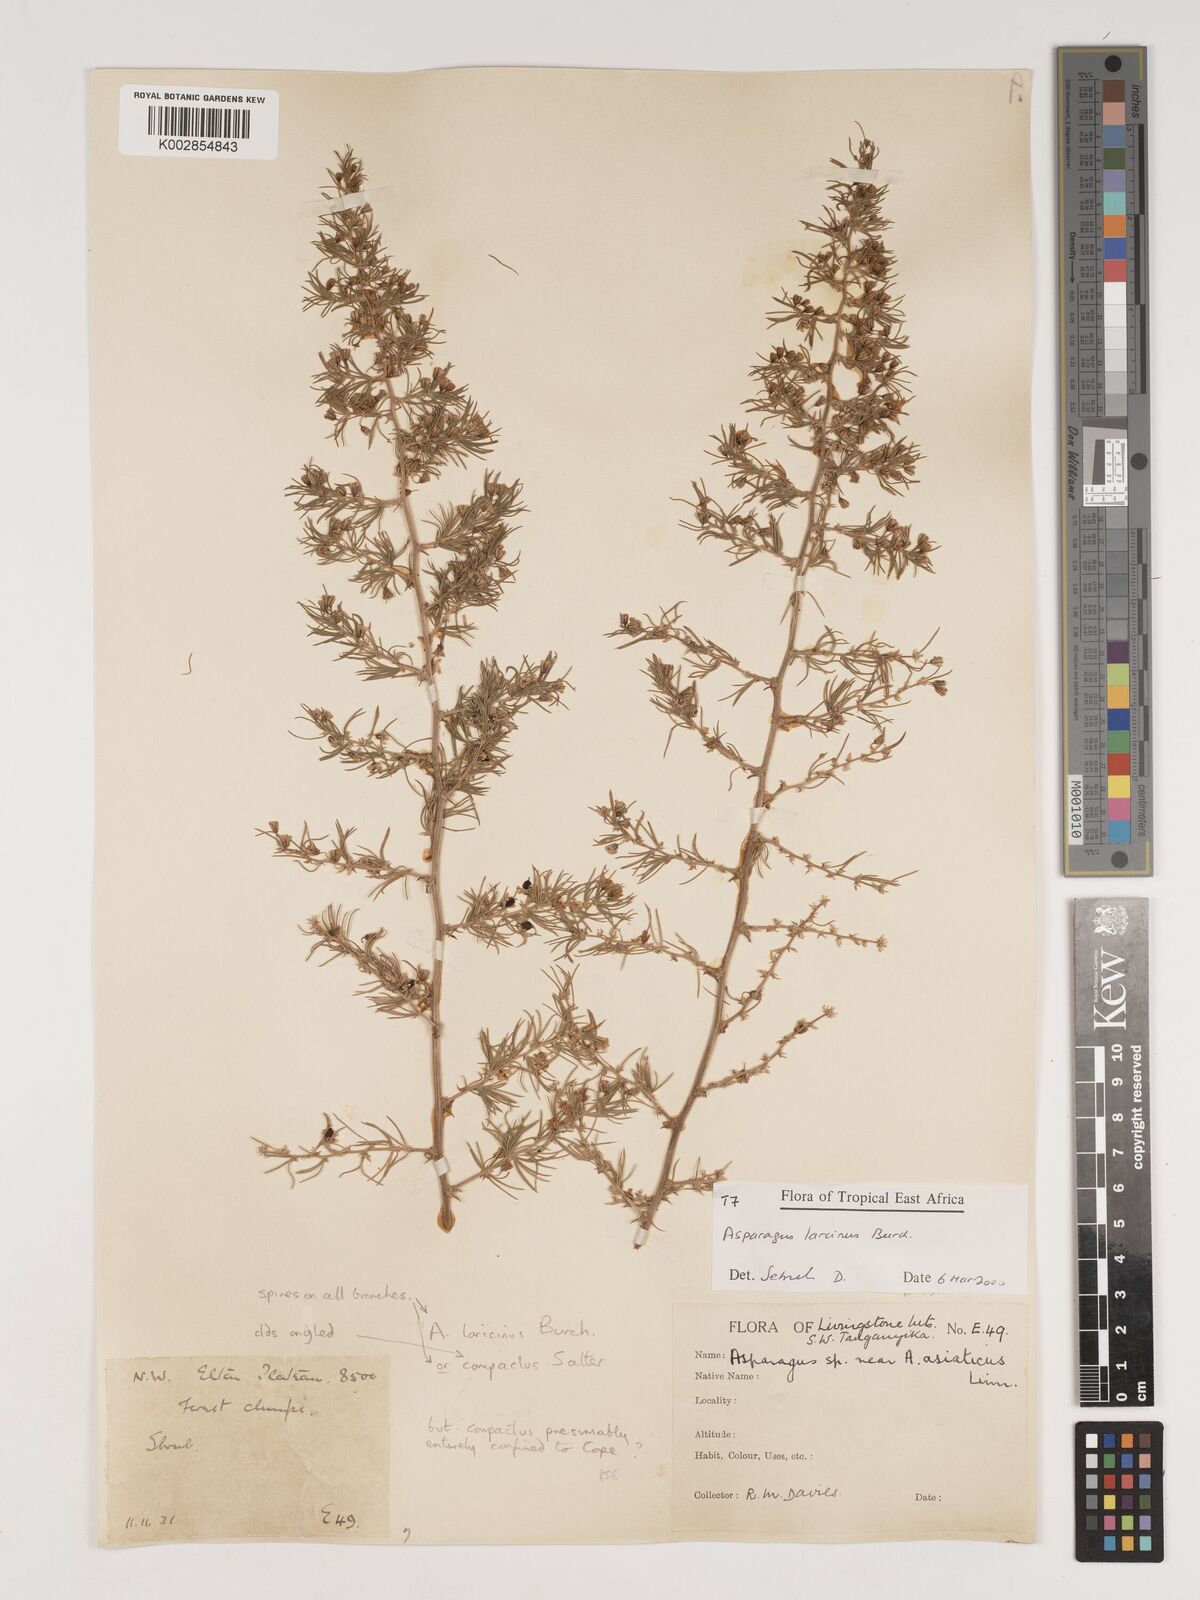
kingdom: Plantae
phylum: Tracheophyta
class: Liliopsida
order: Asparagales
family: Asparagaceae
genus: Asparagus
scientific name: Asparagus laricinus
